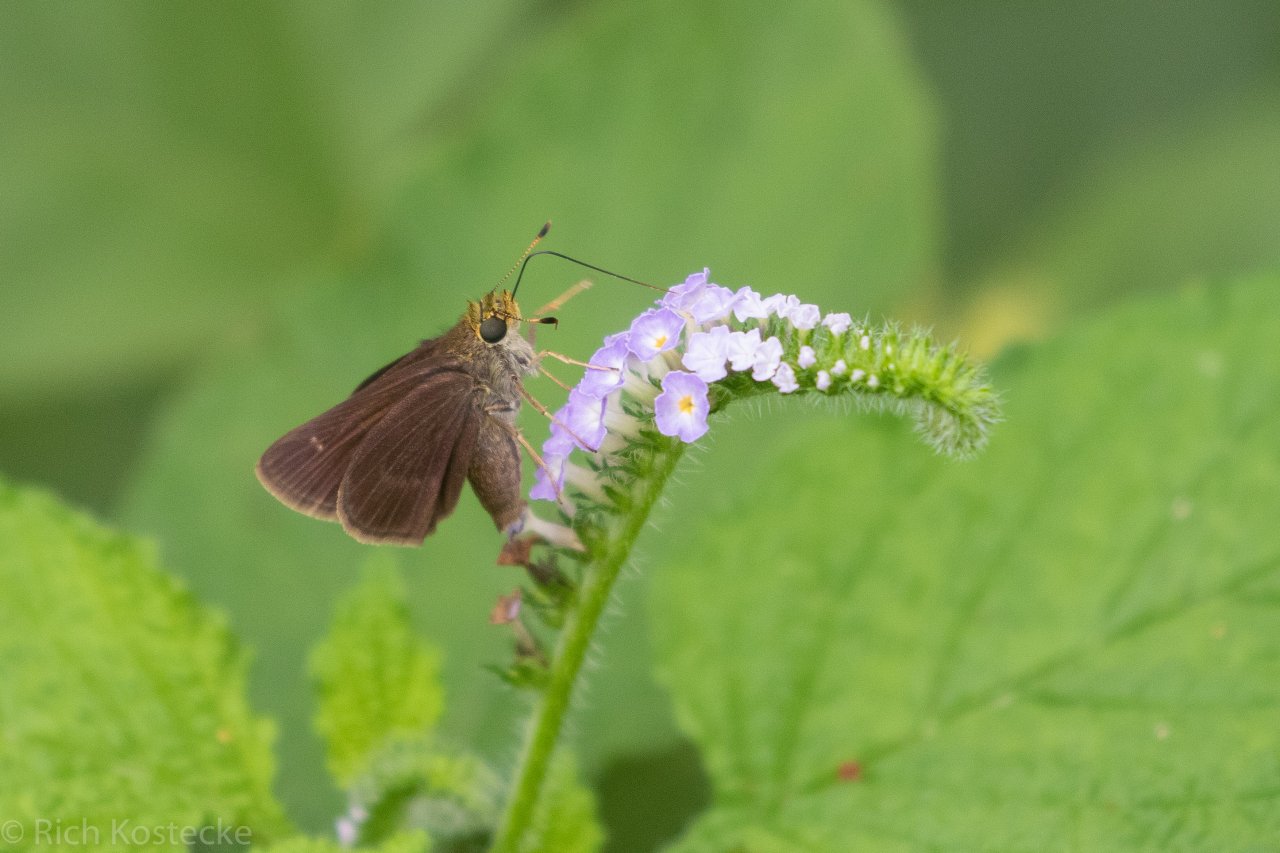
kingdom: Animalia
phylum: Arthropoda
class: Insecta
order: Lepidoptera
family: Hesperiidae
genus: Euphyes
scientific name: Euphyes vestris
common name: Dun Skipper
